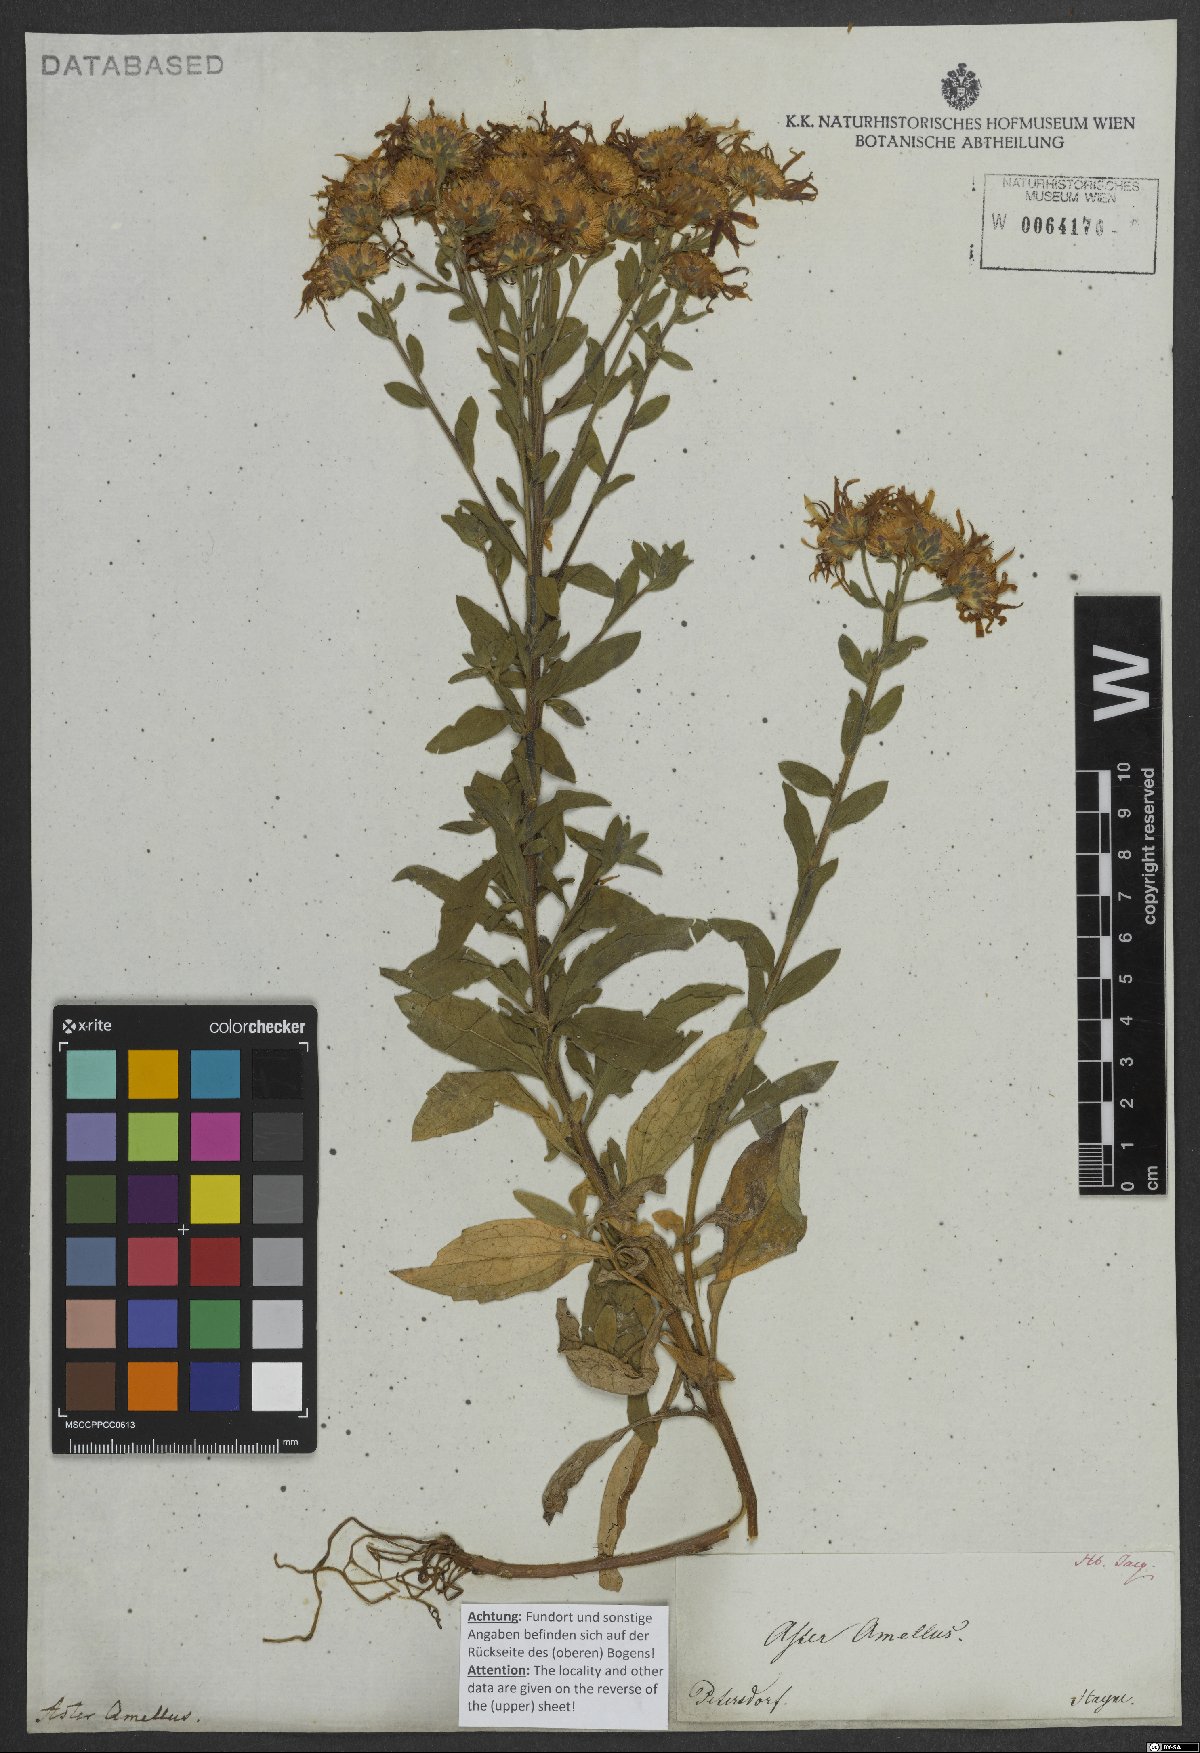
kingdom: Plantae
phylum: Tracheophyta
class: Magnoliopsida
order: Asterales
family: Asteraceae
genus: Aster
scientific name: Aster amellus
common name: European michaelmas daisy
